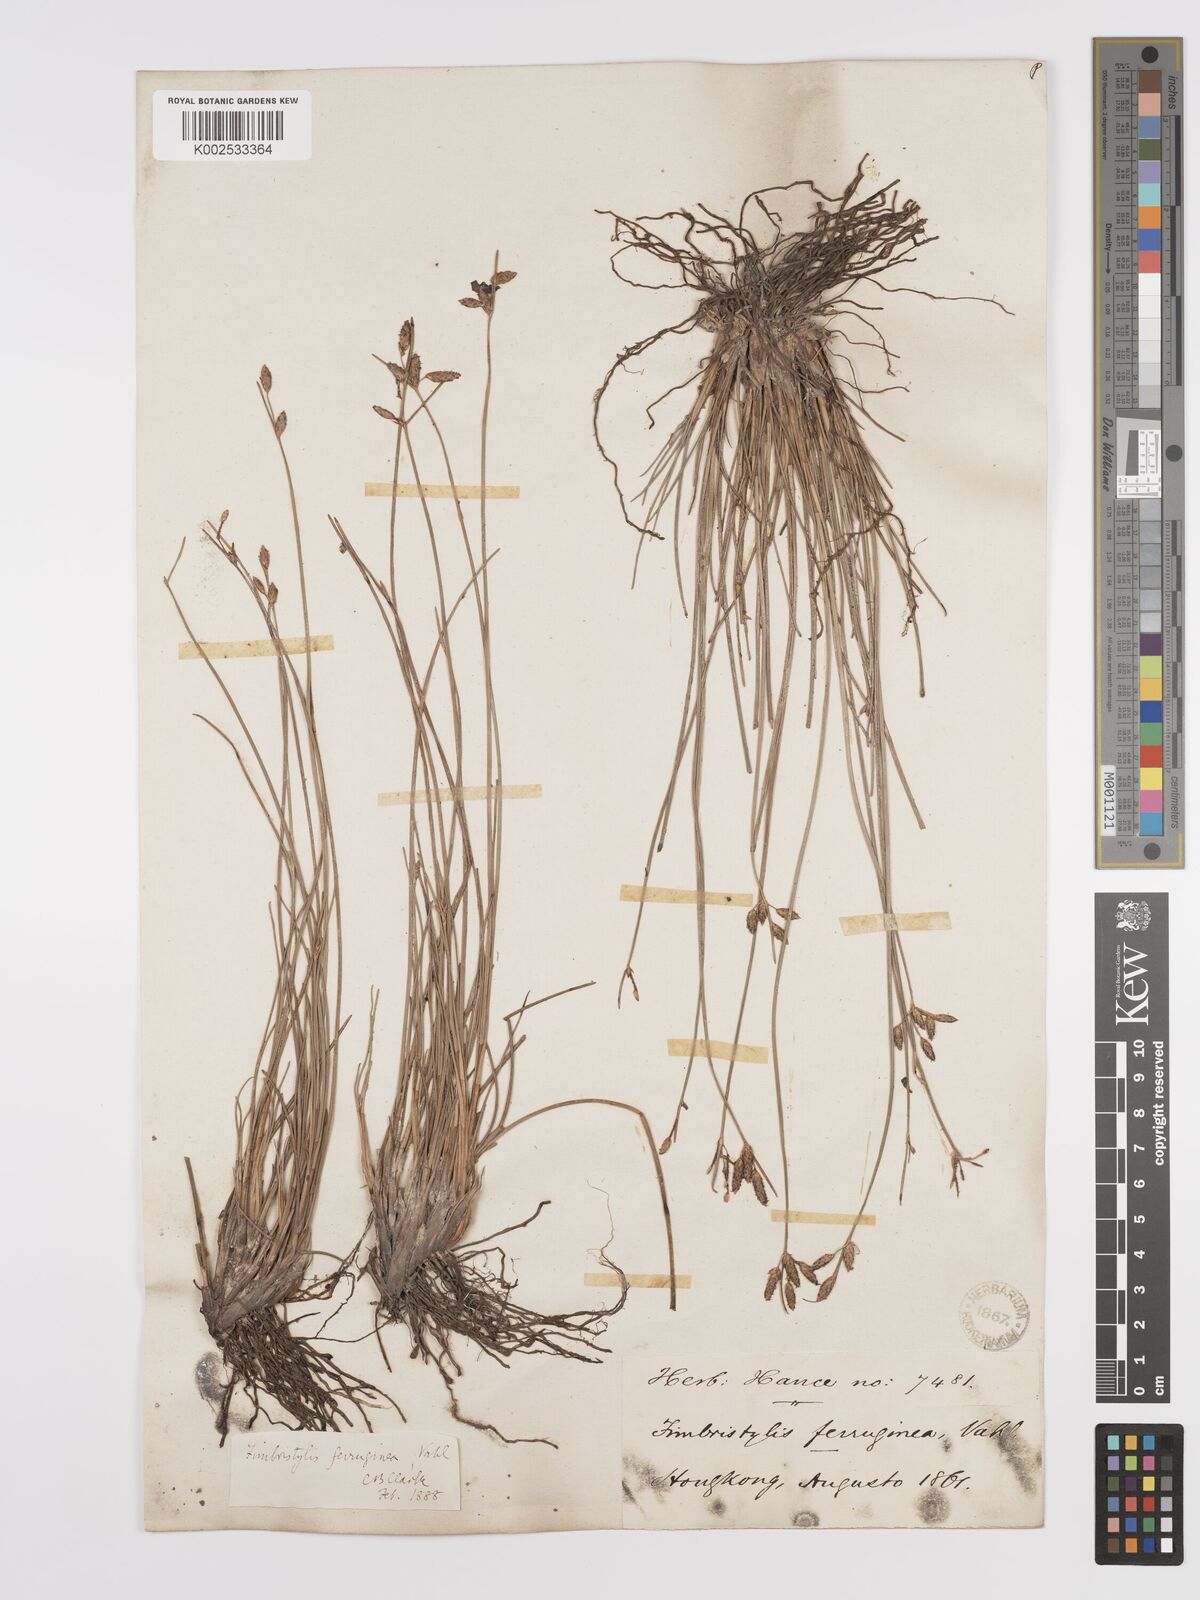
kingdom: Plantae
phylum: Tracheophyta
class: Liliopsida
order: Poales
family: Cyperaceae
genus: Fimbristylis
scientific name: Fimbristylis ferruginea
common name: West indian fimbry
